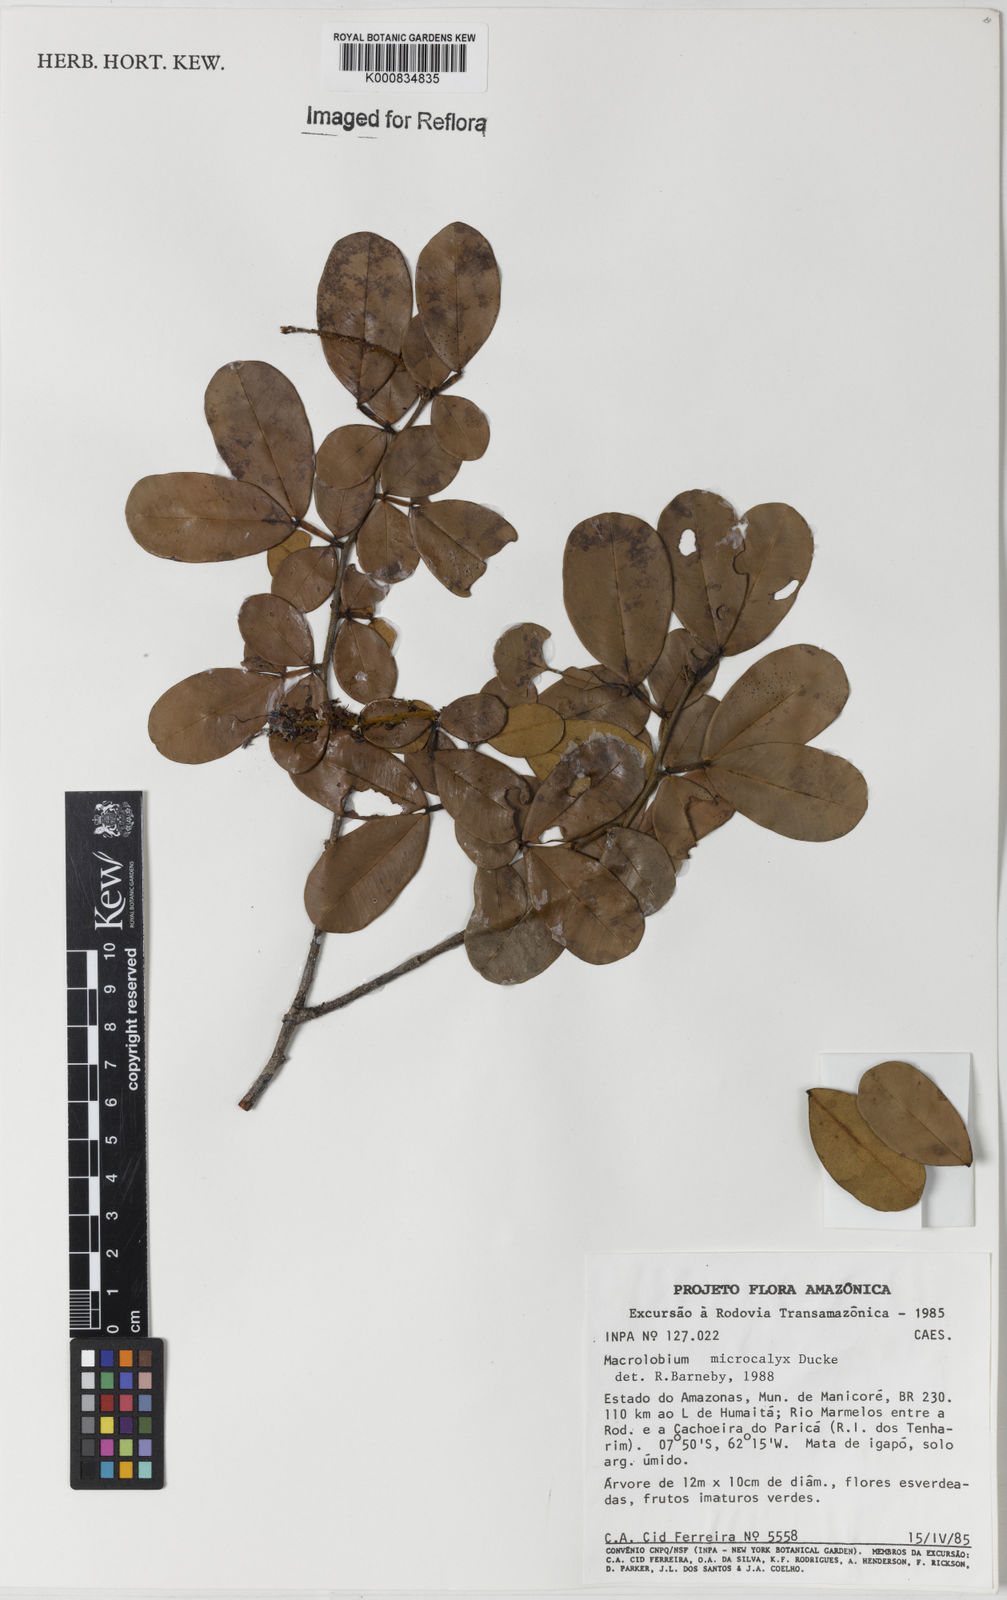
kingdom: Plantae
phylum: Tracheophyta
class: Magnoliopsida
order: Fabales
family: Fabaceae
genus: Macrolobium
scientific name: Macrolobium microcalyx
